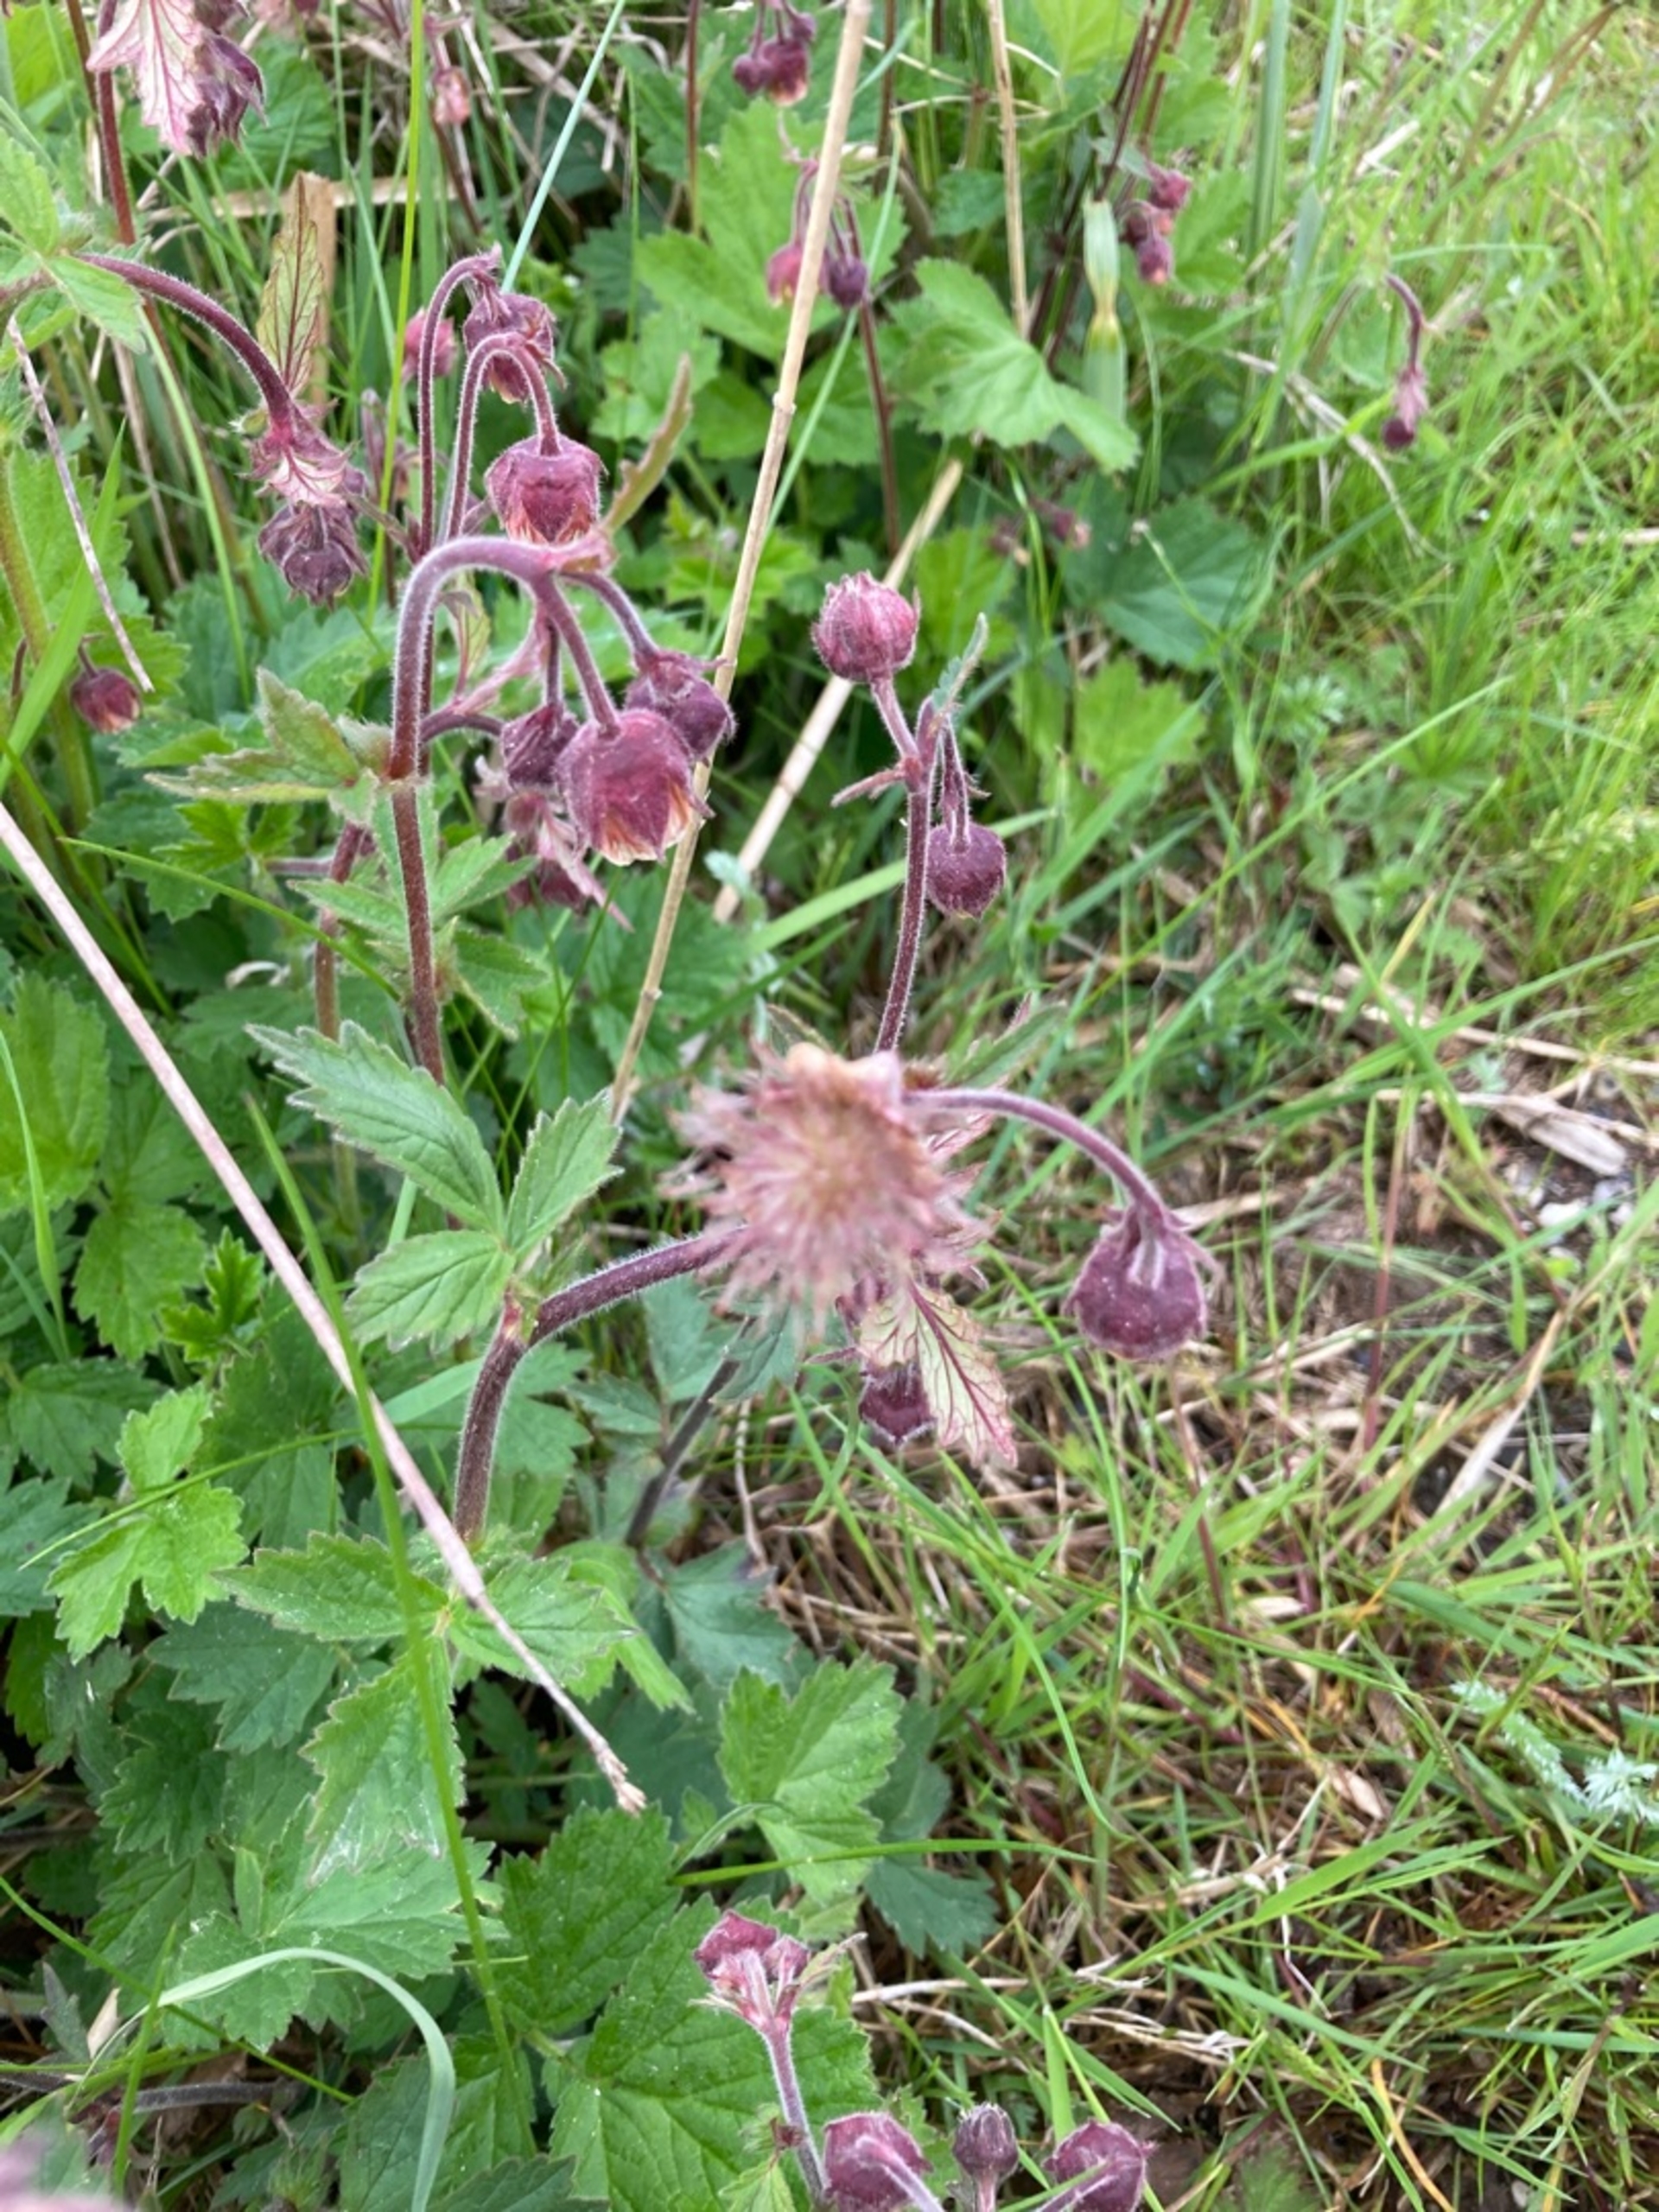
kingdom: Plantae
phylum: Tracheophyta
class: Magnoliopsida
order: Rosales
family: Rosaceae
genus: Geum
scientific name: Geum rivale
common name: Eng-nellikerod
